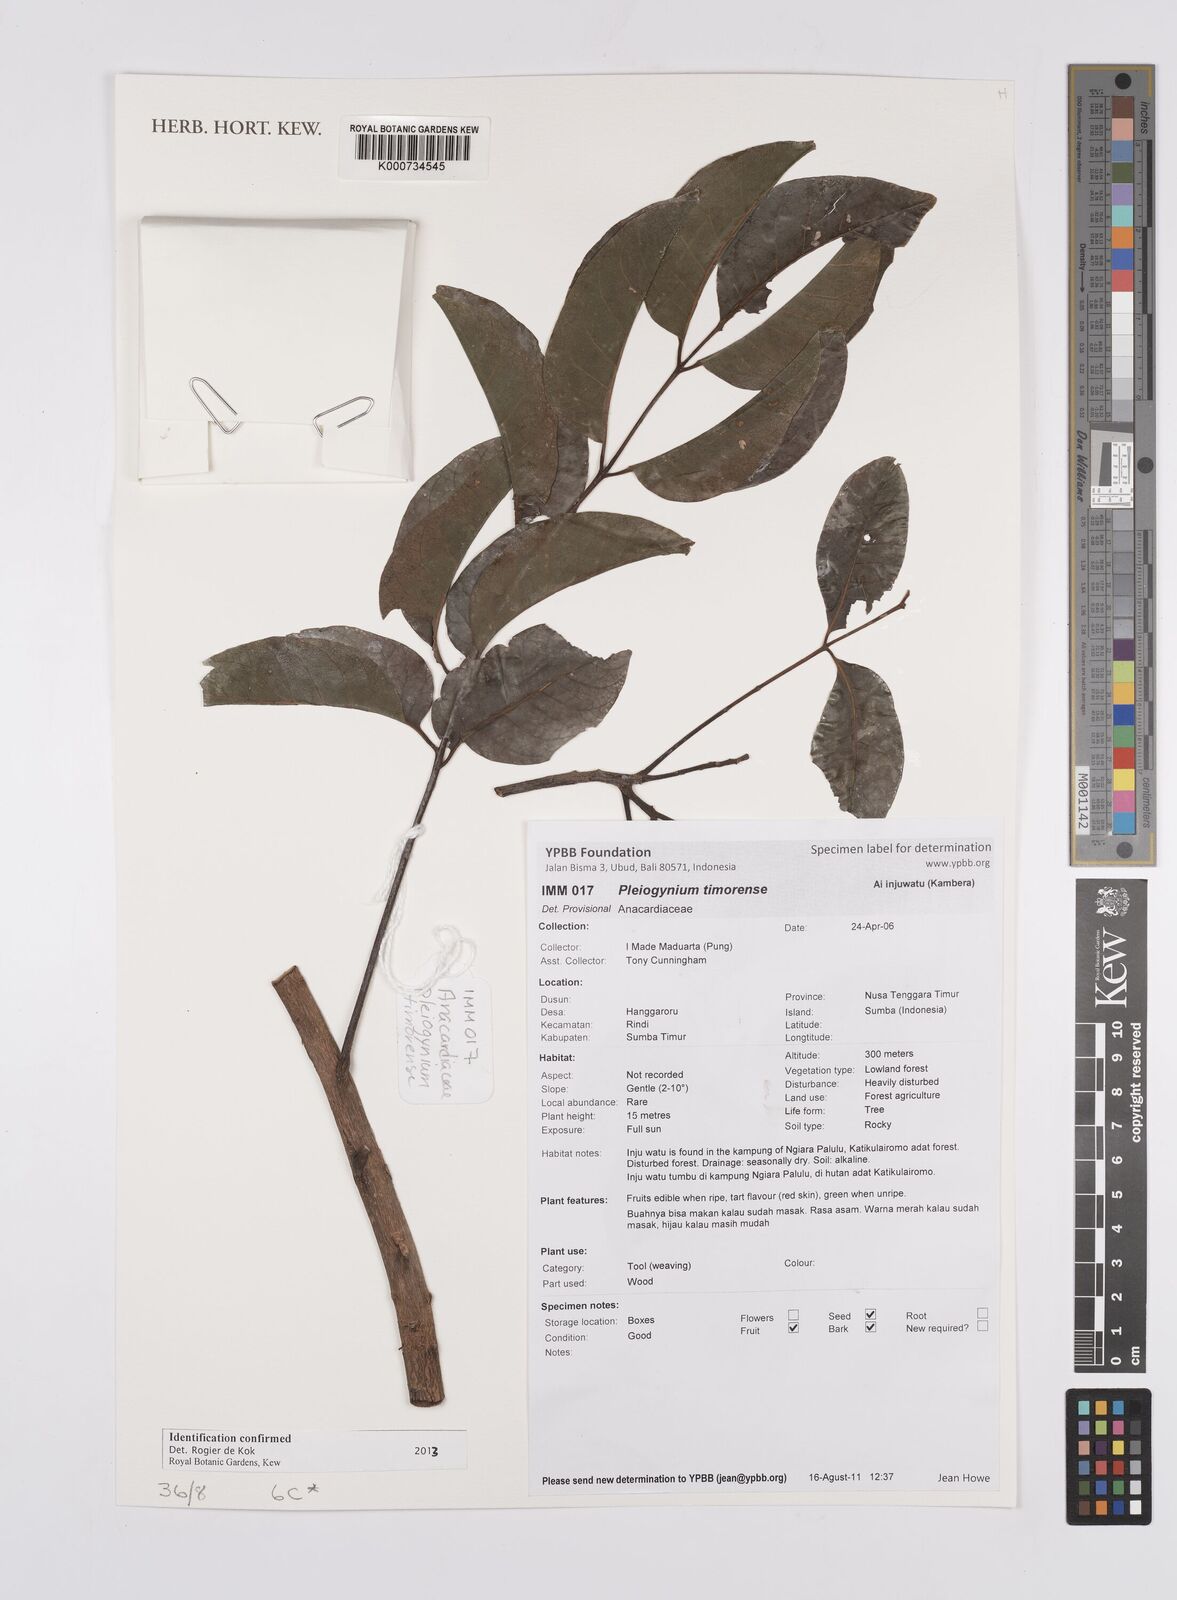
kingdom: Plantae
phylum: Tracheophyta
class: Magnoliopsida
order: Sapindales
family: Anacardiaceae
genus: Pleiogynium
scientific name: Pleiogynium
